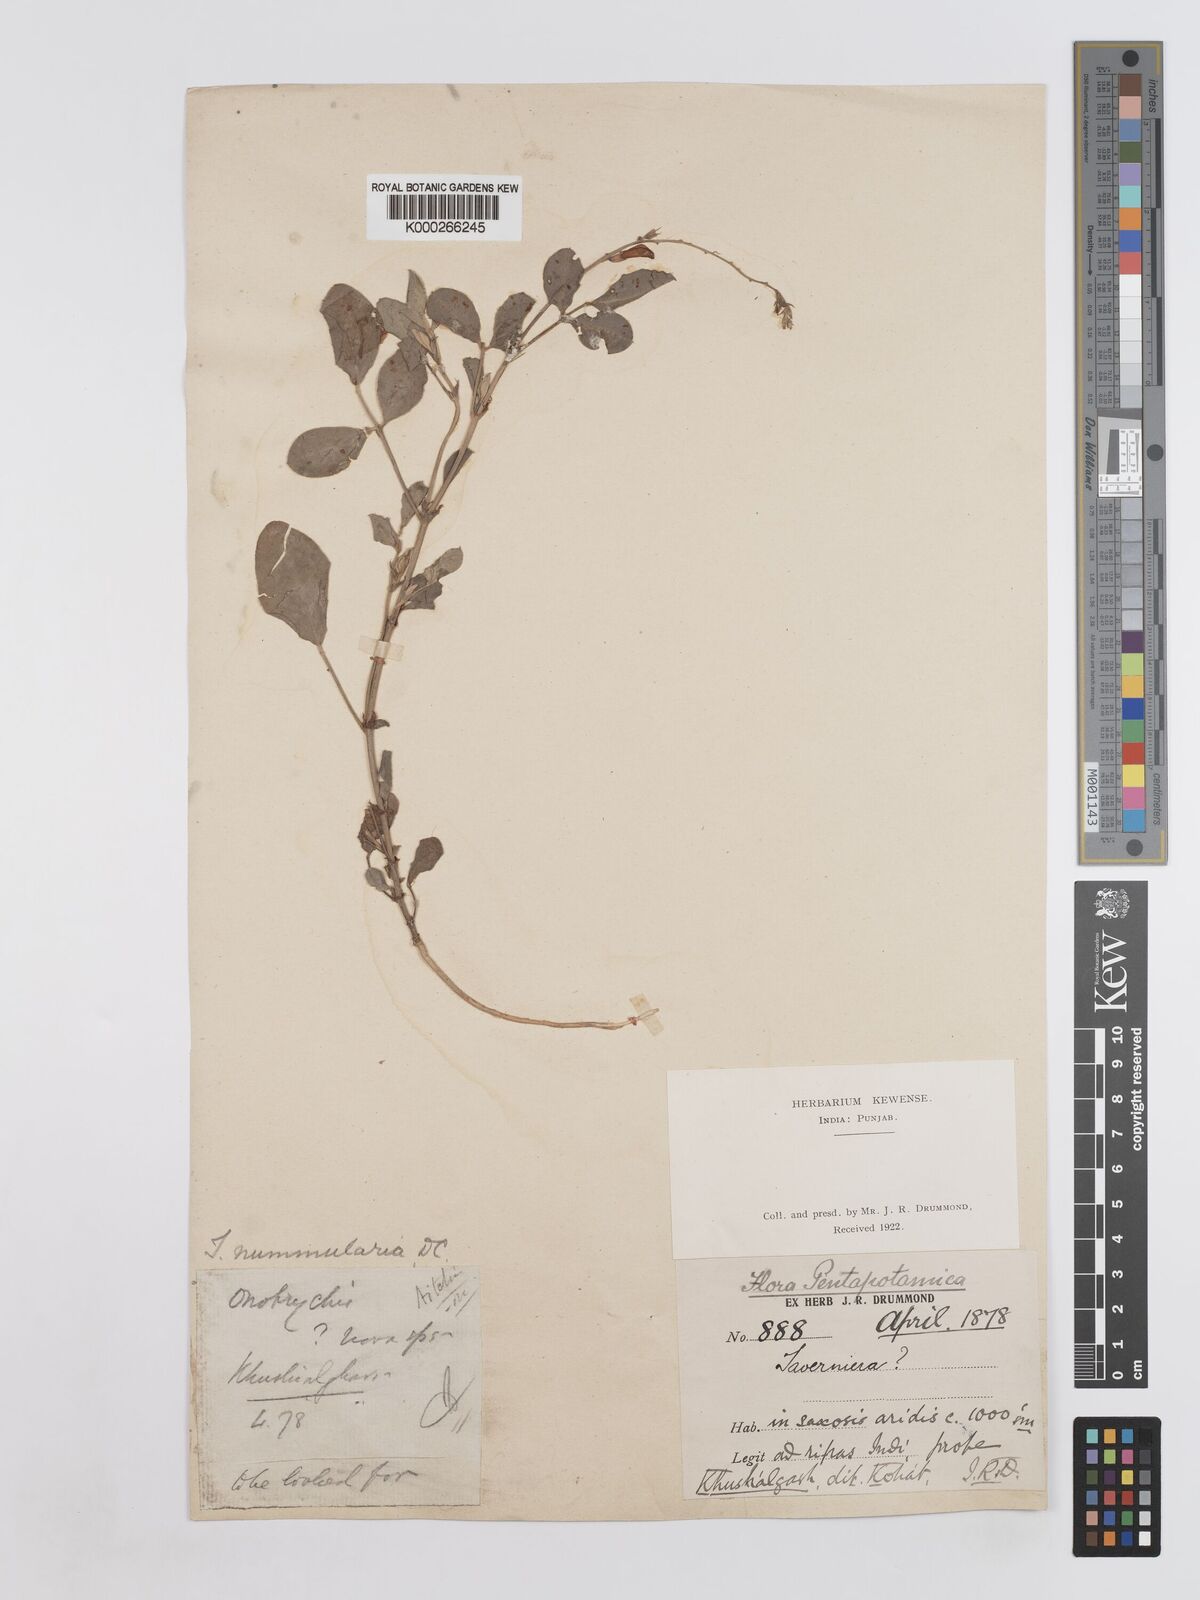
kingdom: Plantae
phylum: Tracheophyta
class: Magnoliopsida
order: Fabales
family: Fabaceae
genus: Taverniera
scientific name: Taverniera nummularia
